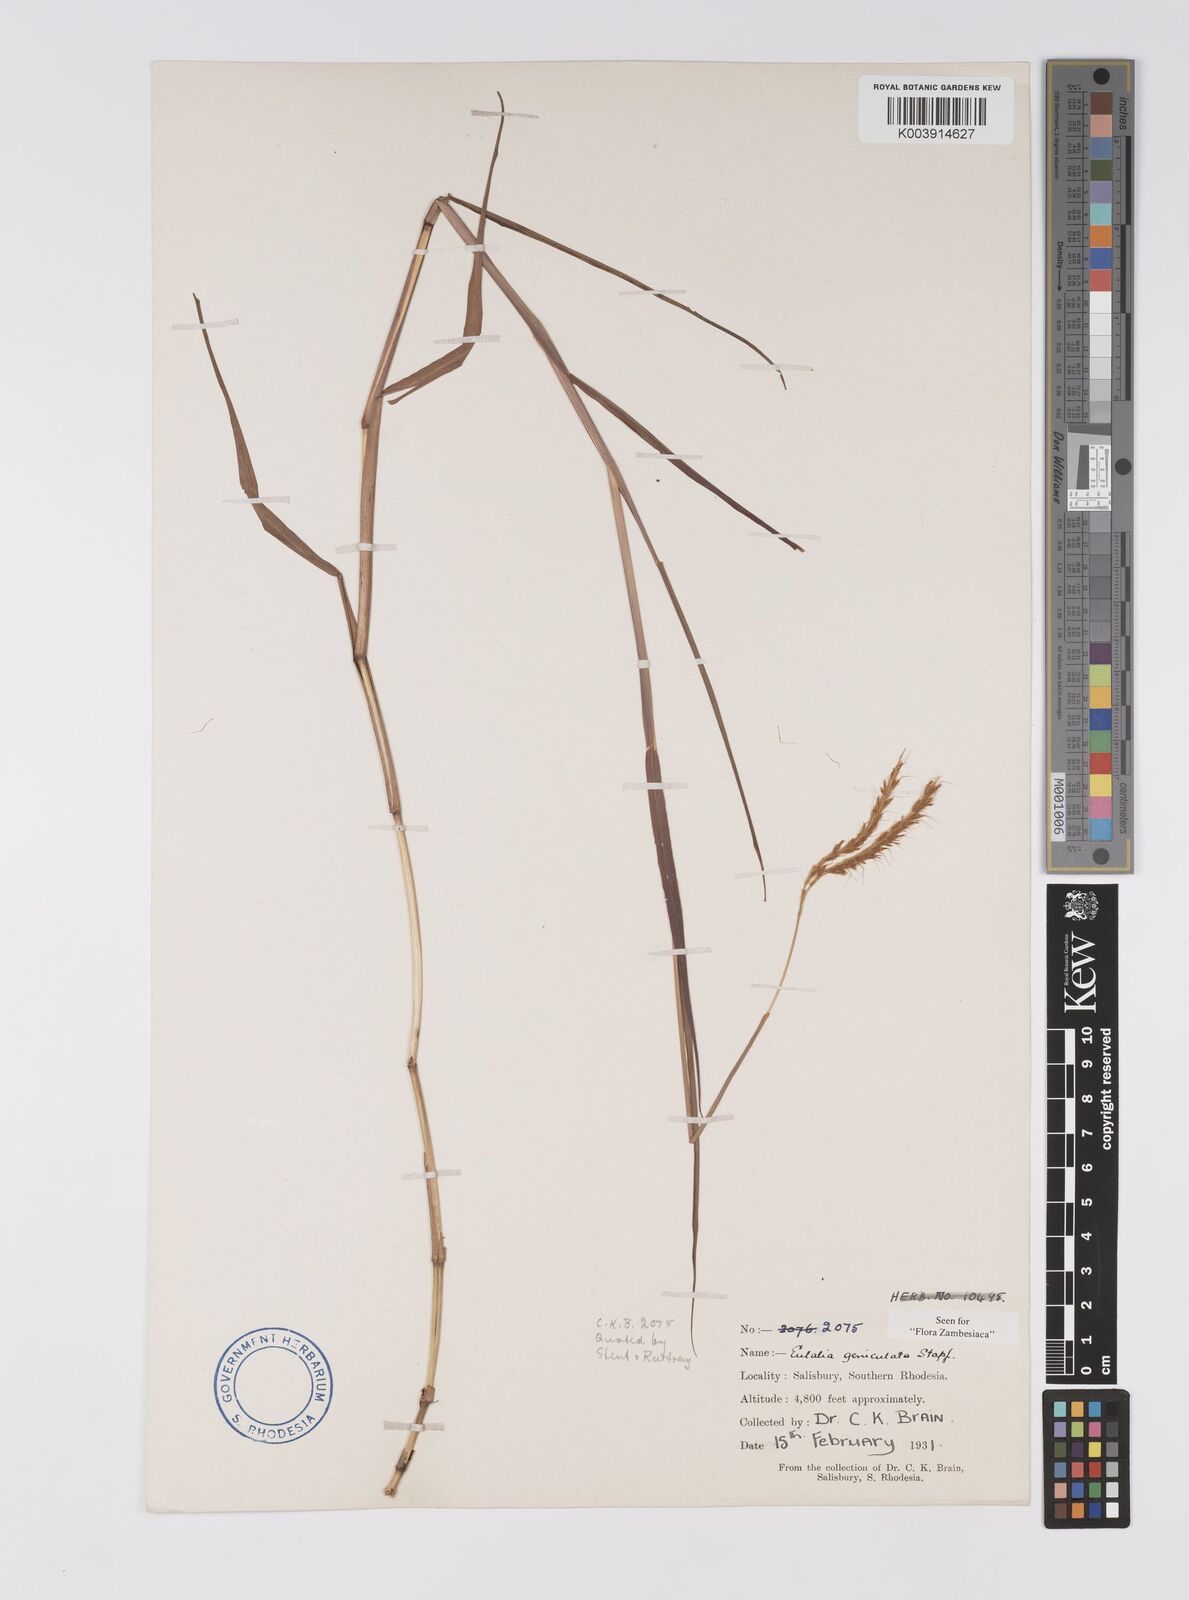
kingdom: Plantae
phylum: Tracheophyta
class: Liliopsida
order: Poales
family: Poaceae
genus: Eulalia
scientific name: Eulalia aurea
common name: Silky browntop
